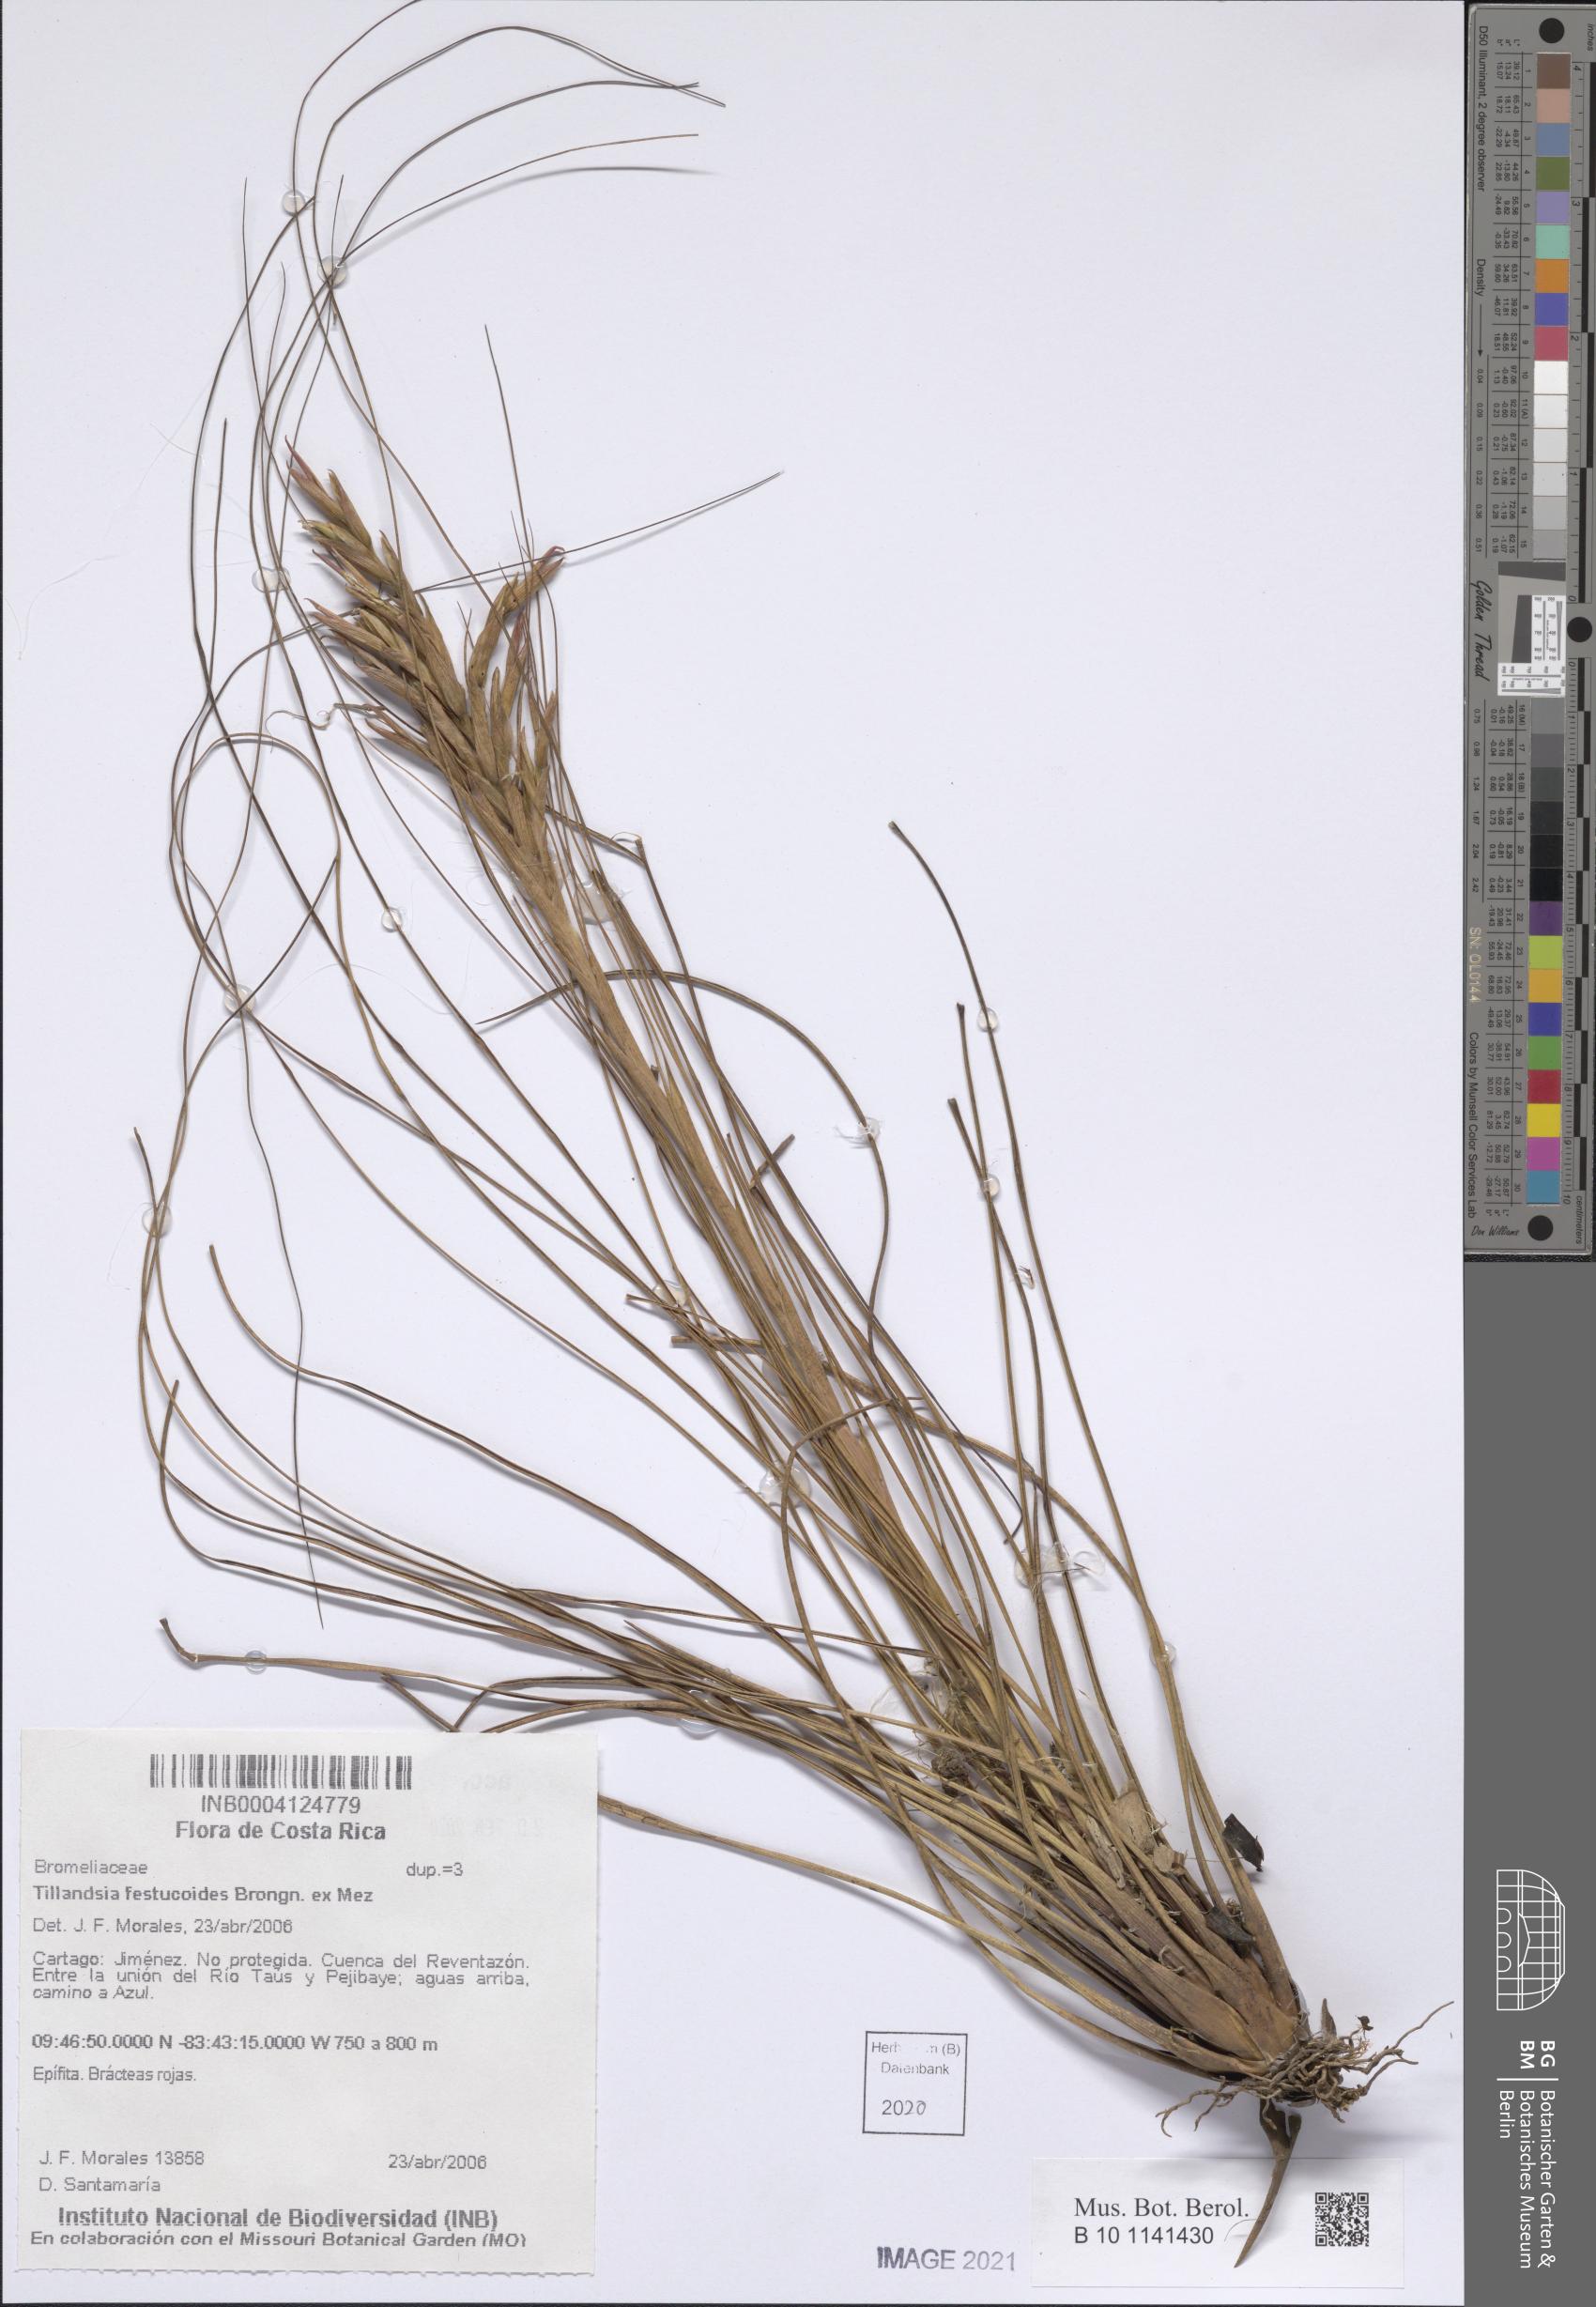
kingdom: Plantae
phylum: Tracheophyta
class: Liliopsida
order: Poales
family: Bromeliaceae
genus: Tillandsia
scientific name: Tillandsia festucoides
